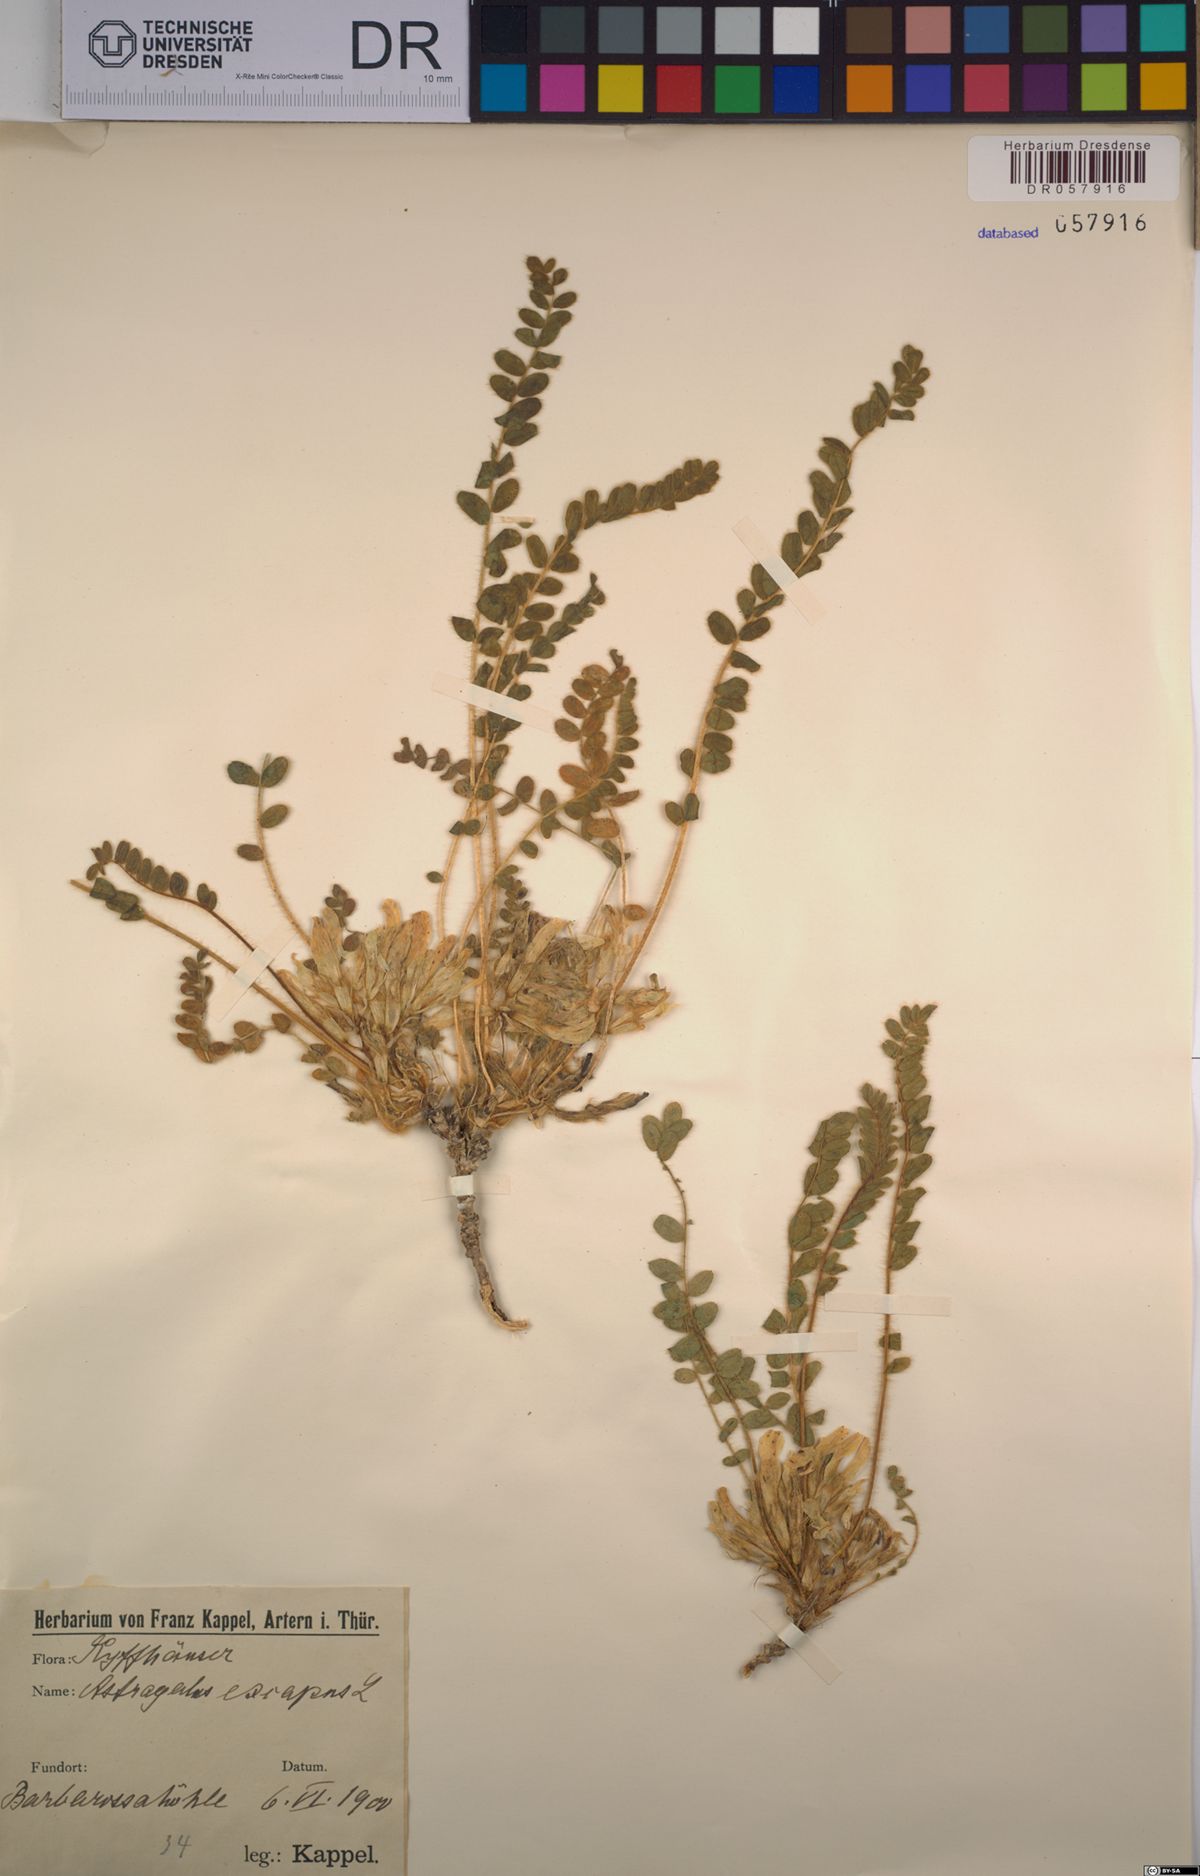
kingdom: Plantae
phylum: Tracheophyta
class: Magnoliopsida
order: Fabales
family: Fabaceae
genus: Astragalus
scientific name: Astragalus exscapus
